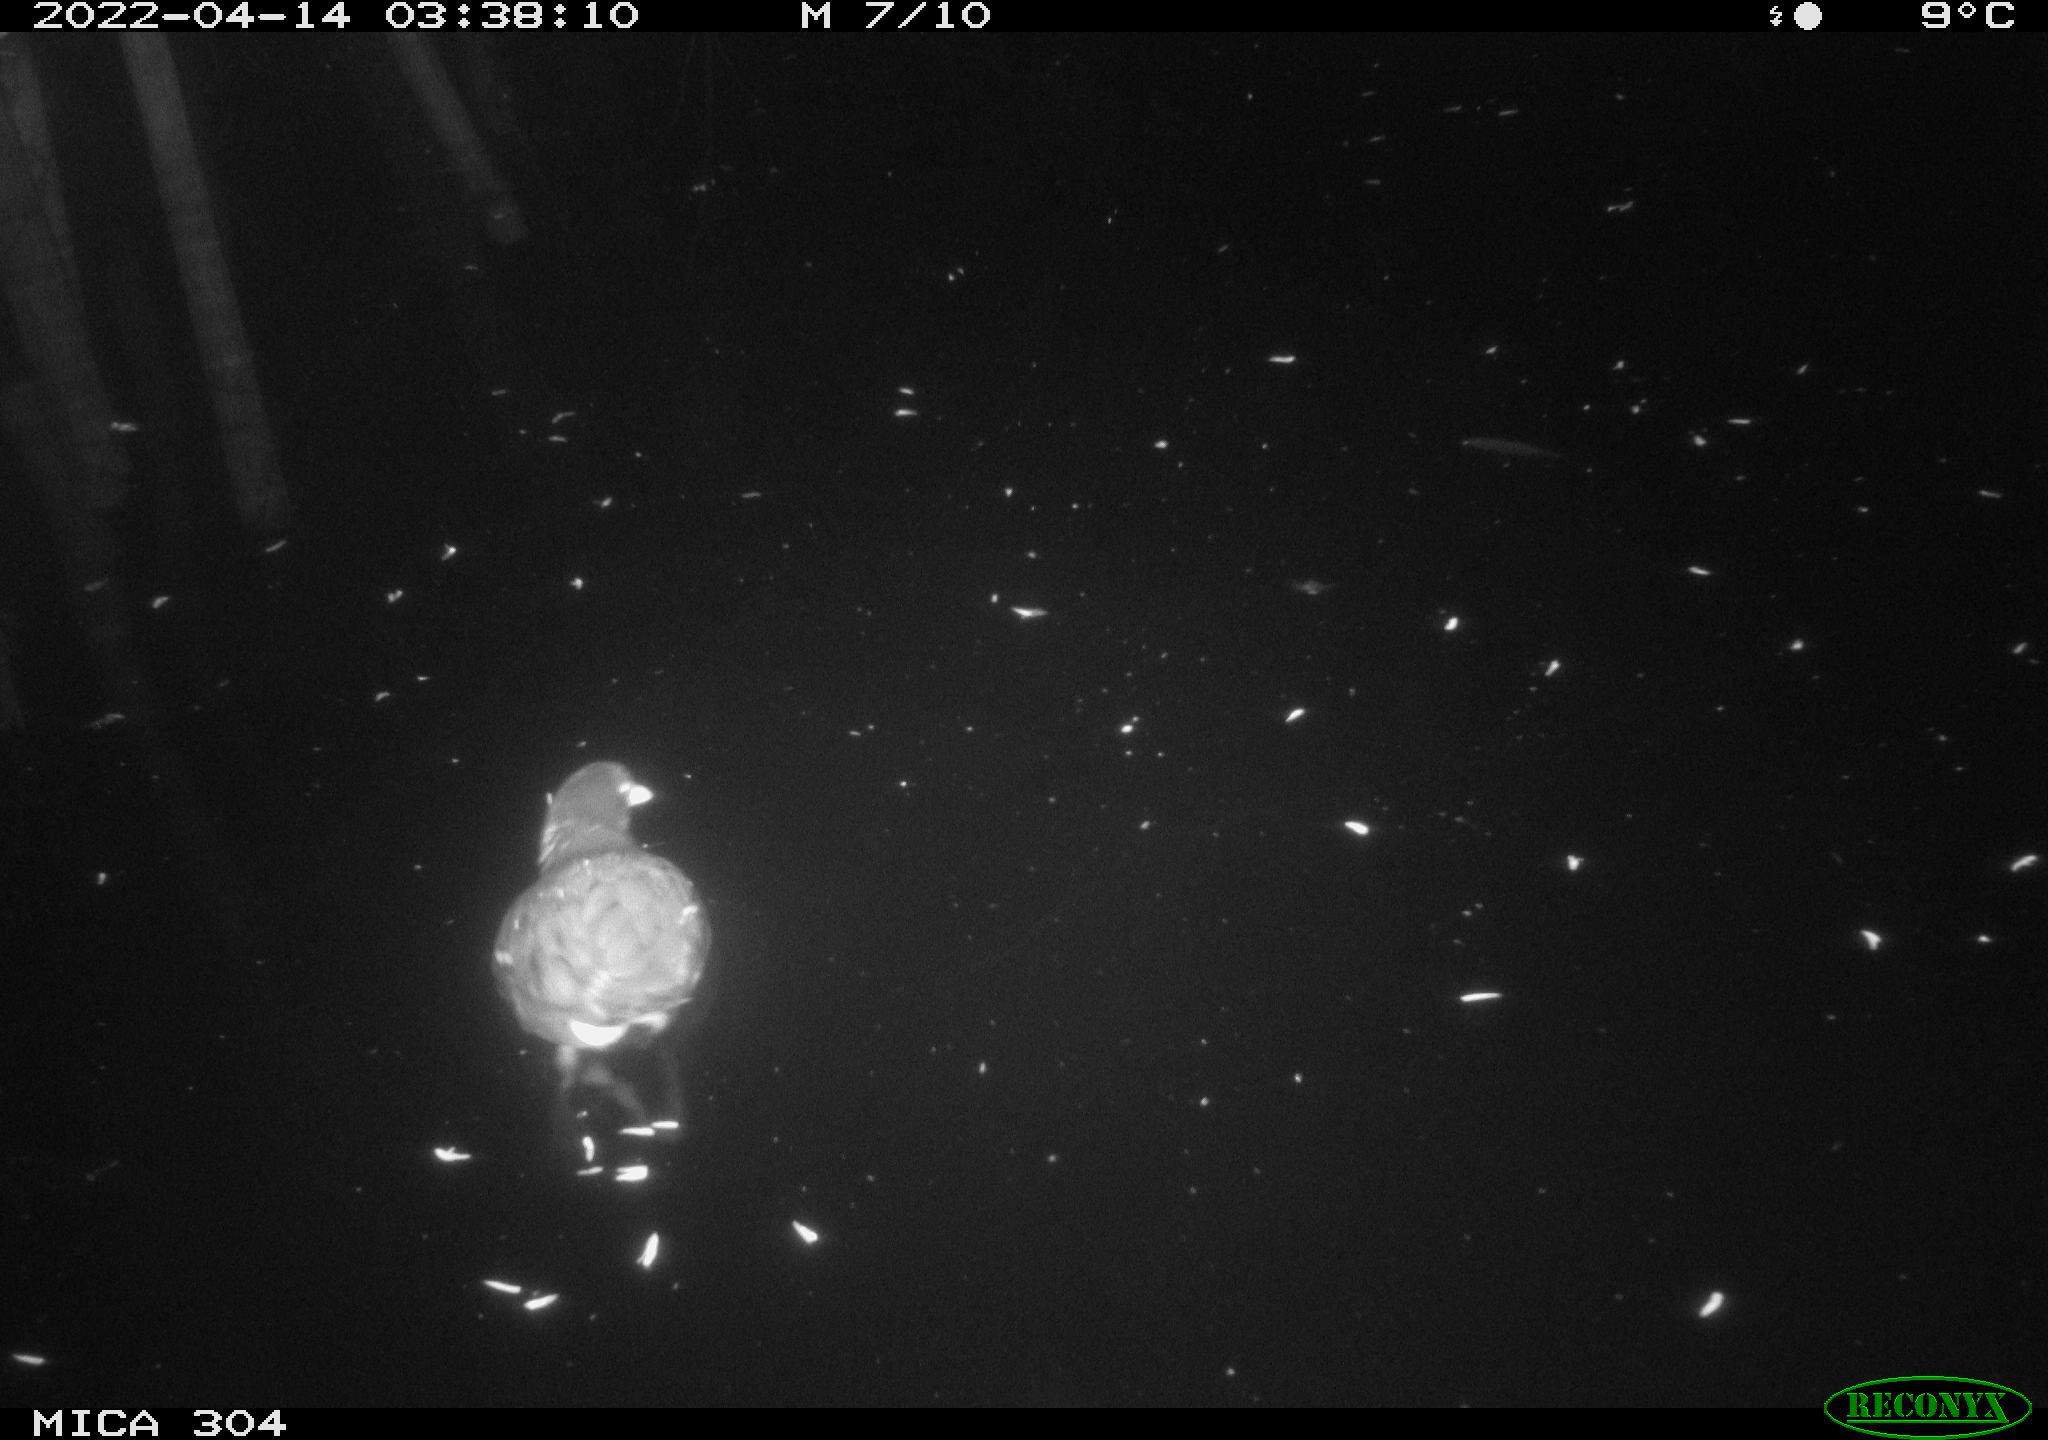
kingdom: Animalia
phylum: Chordata
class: Aves
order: Gruiformes
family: Rallidae
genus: Gallinula
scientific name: Gallinula chloropus
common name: Common moorhen
